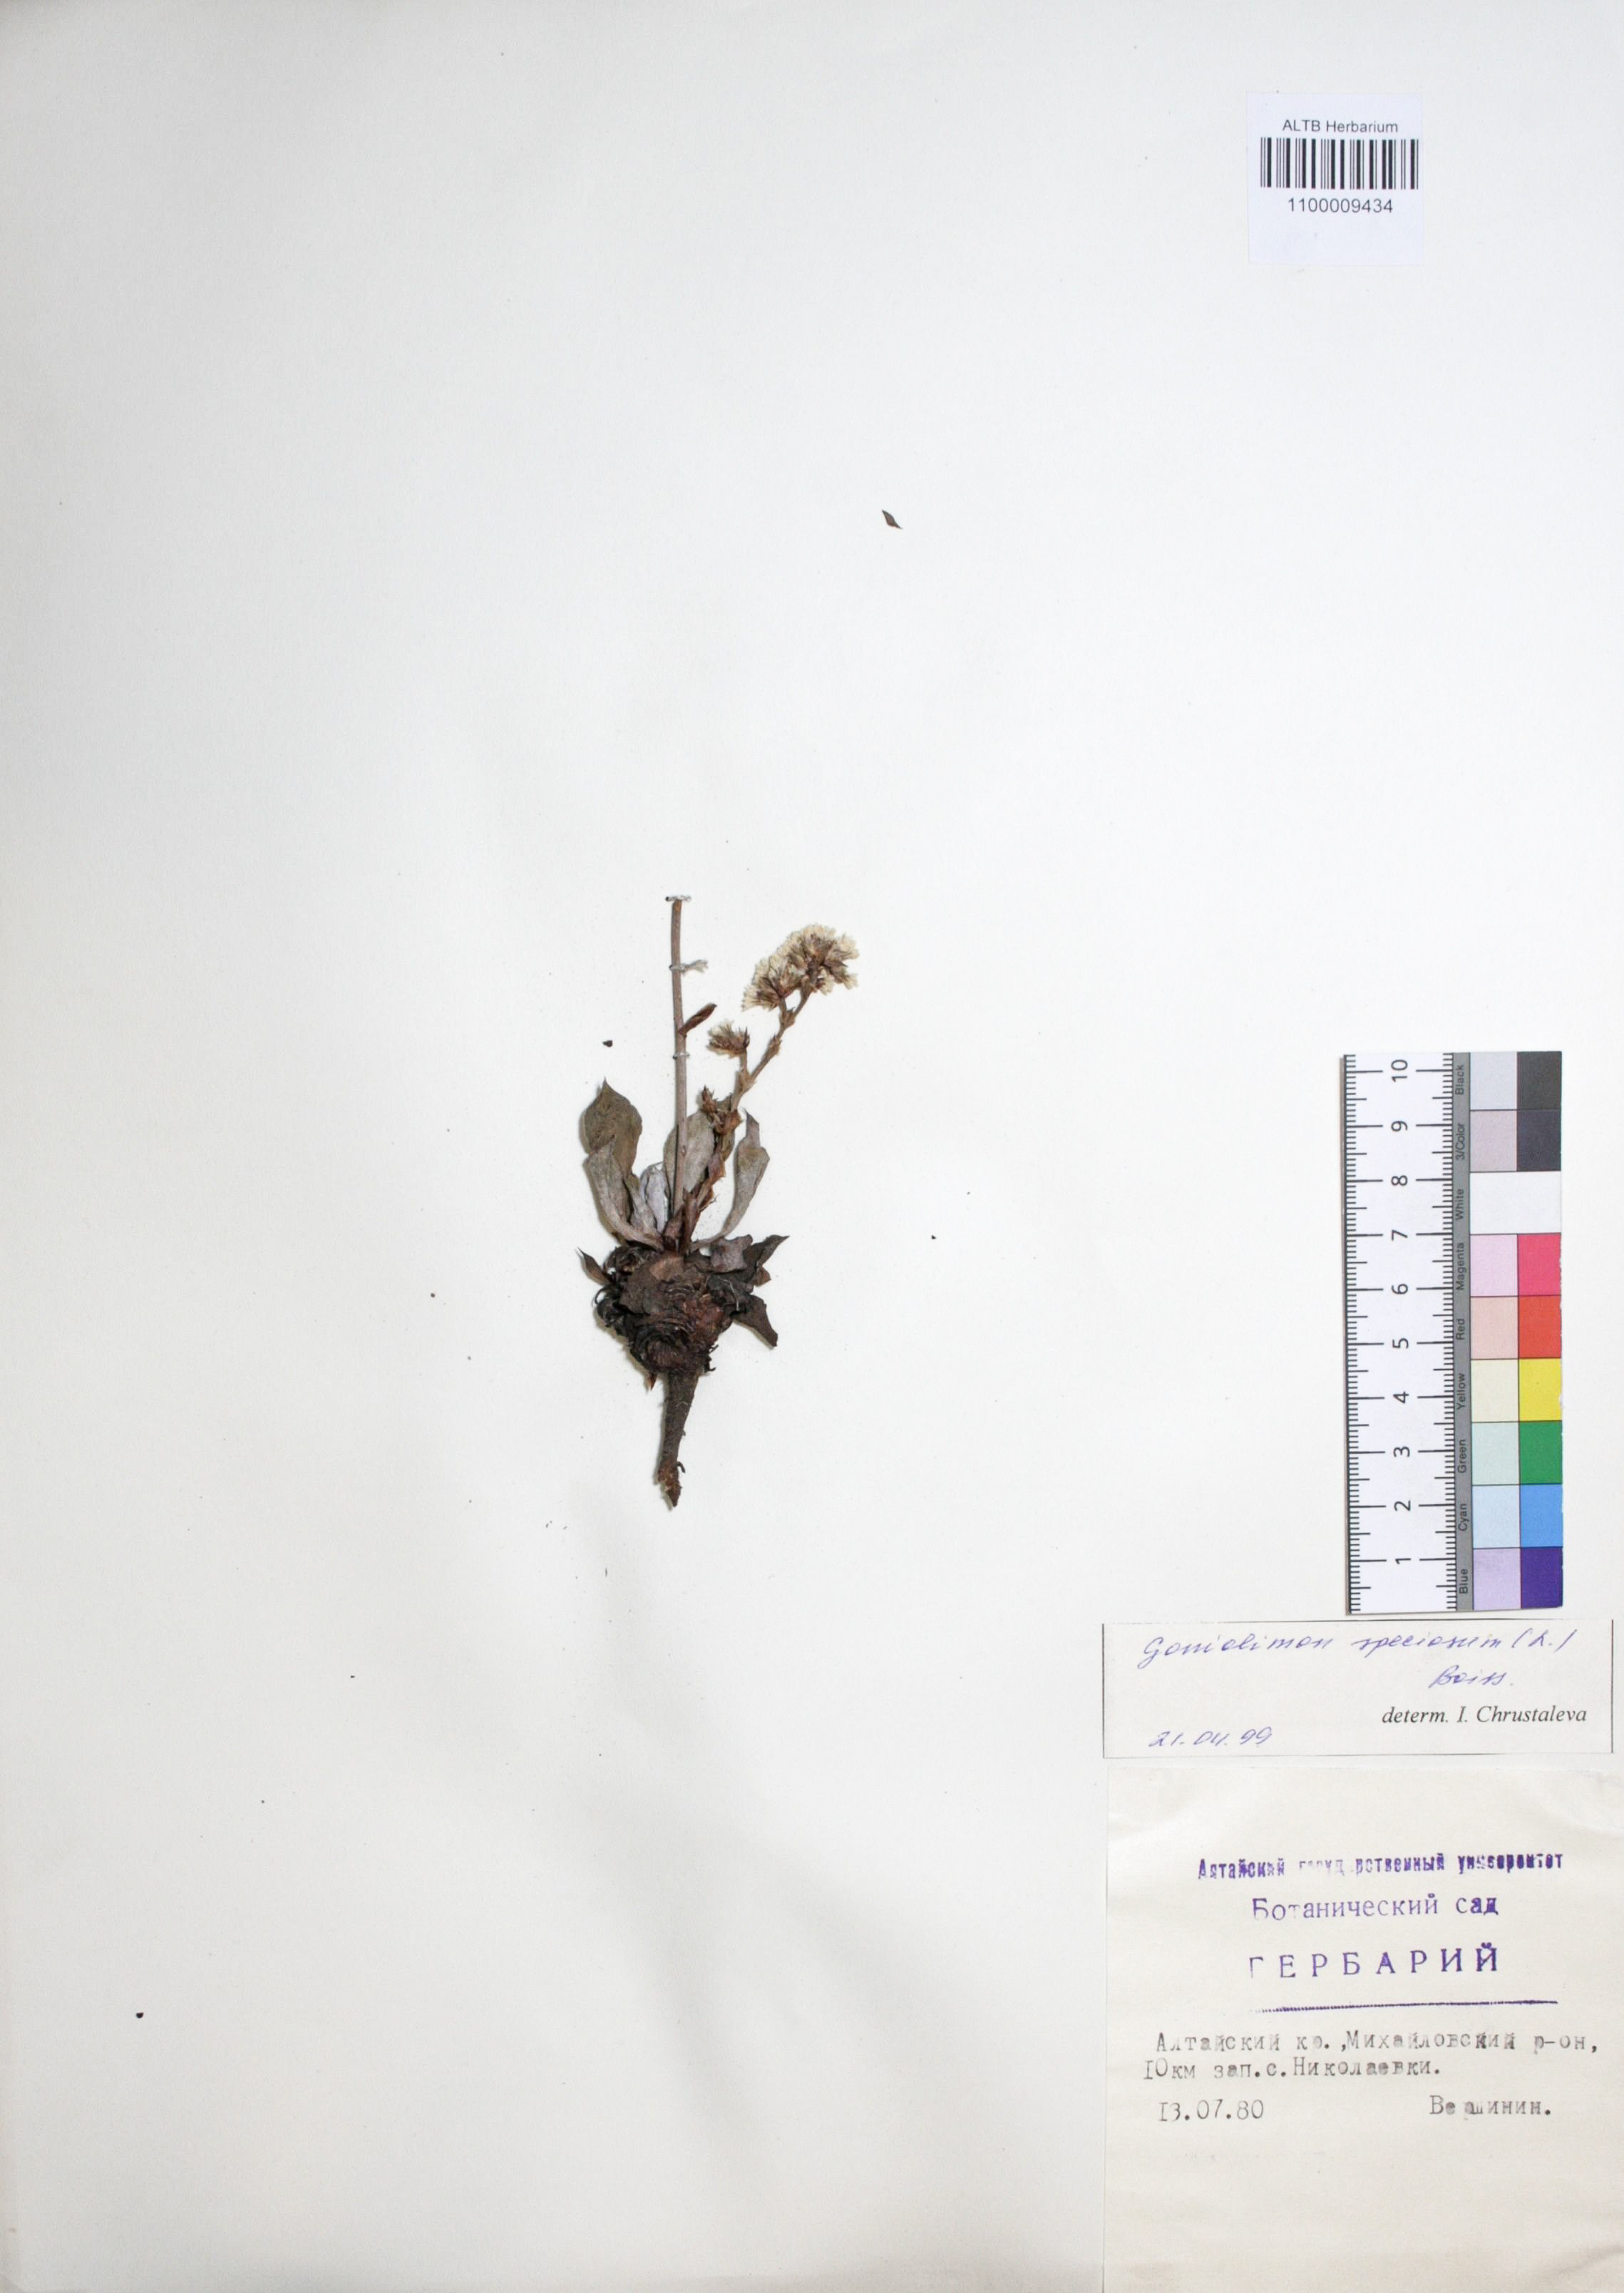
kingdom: Plantae
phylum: Tracheophyta
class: Magnoliopsida
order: Caryophyllales
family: Plumbaginaceae
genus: Goniolimon
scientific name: Goniolimon speciosum
